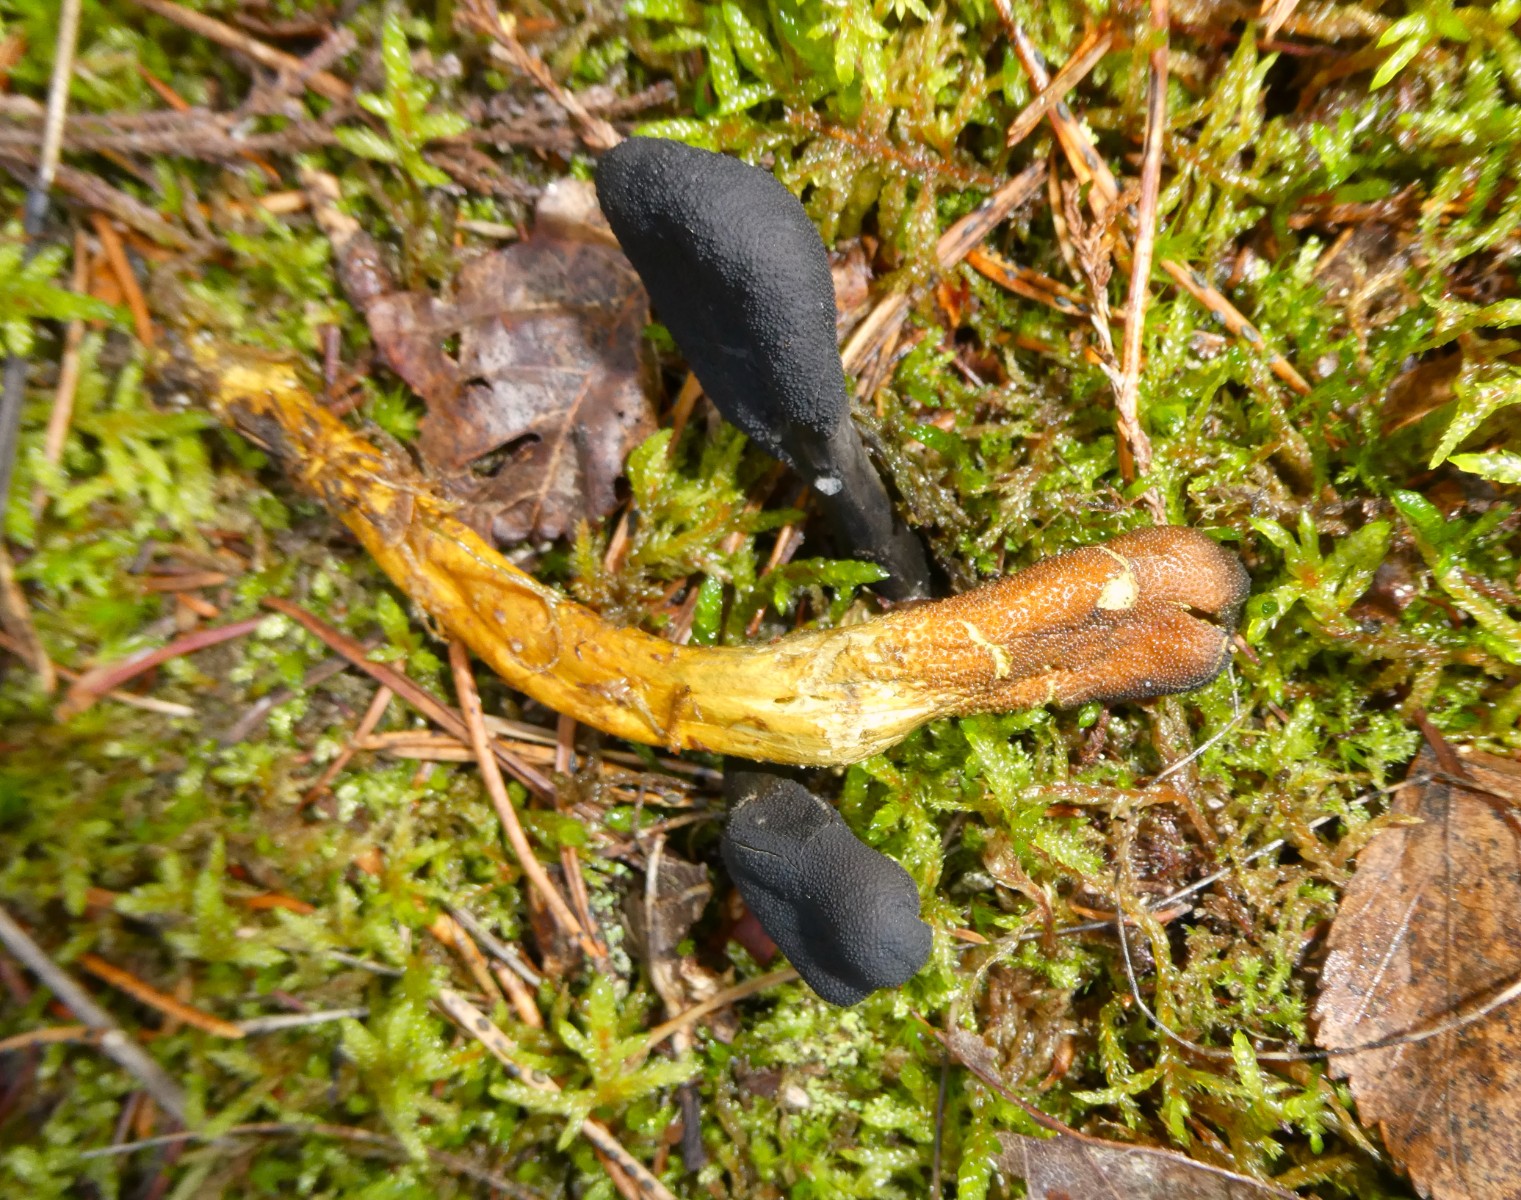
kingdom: Fungi
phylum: Ascomycota
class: Sordariomycetes
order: Hypocreales
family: Ophiocordycipitaceae
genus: Tolypocladium
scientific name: Tolypocladium ophioglossoides
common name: slank snyltekølle
